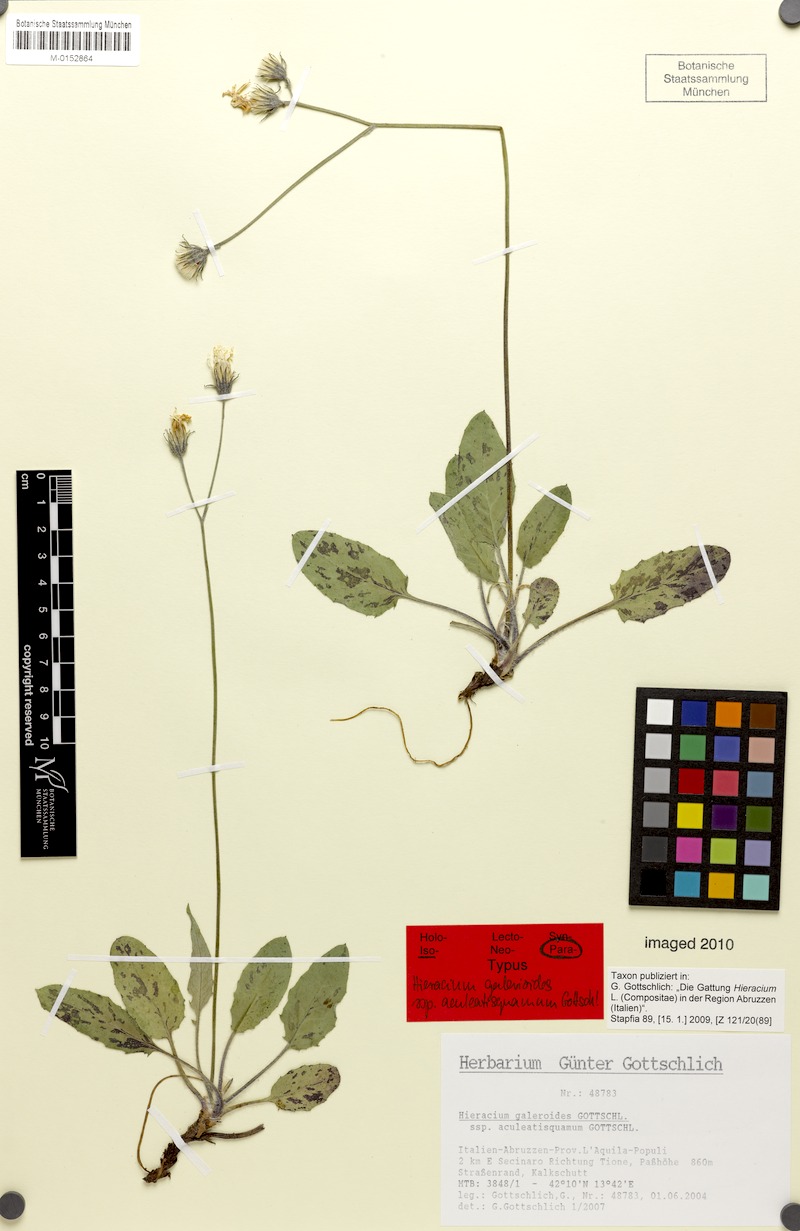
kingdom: Plantae
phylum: Tracheophyta
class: Magnoliopsida
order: Asterales
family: Asteraceae
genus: Hieracium
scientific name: Hieracium galeroides
